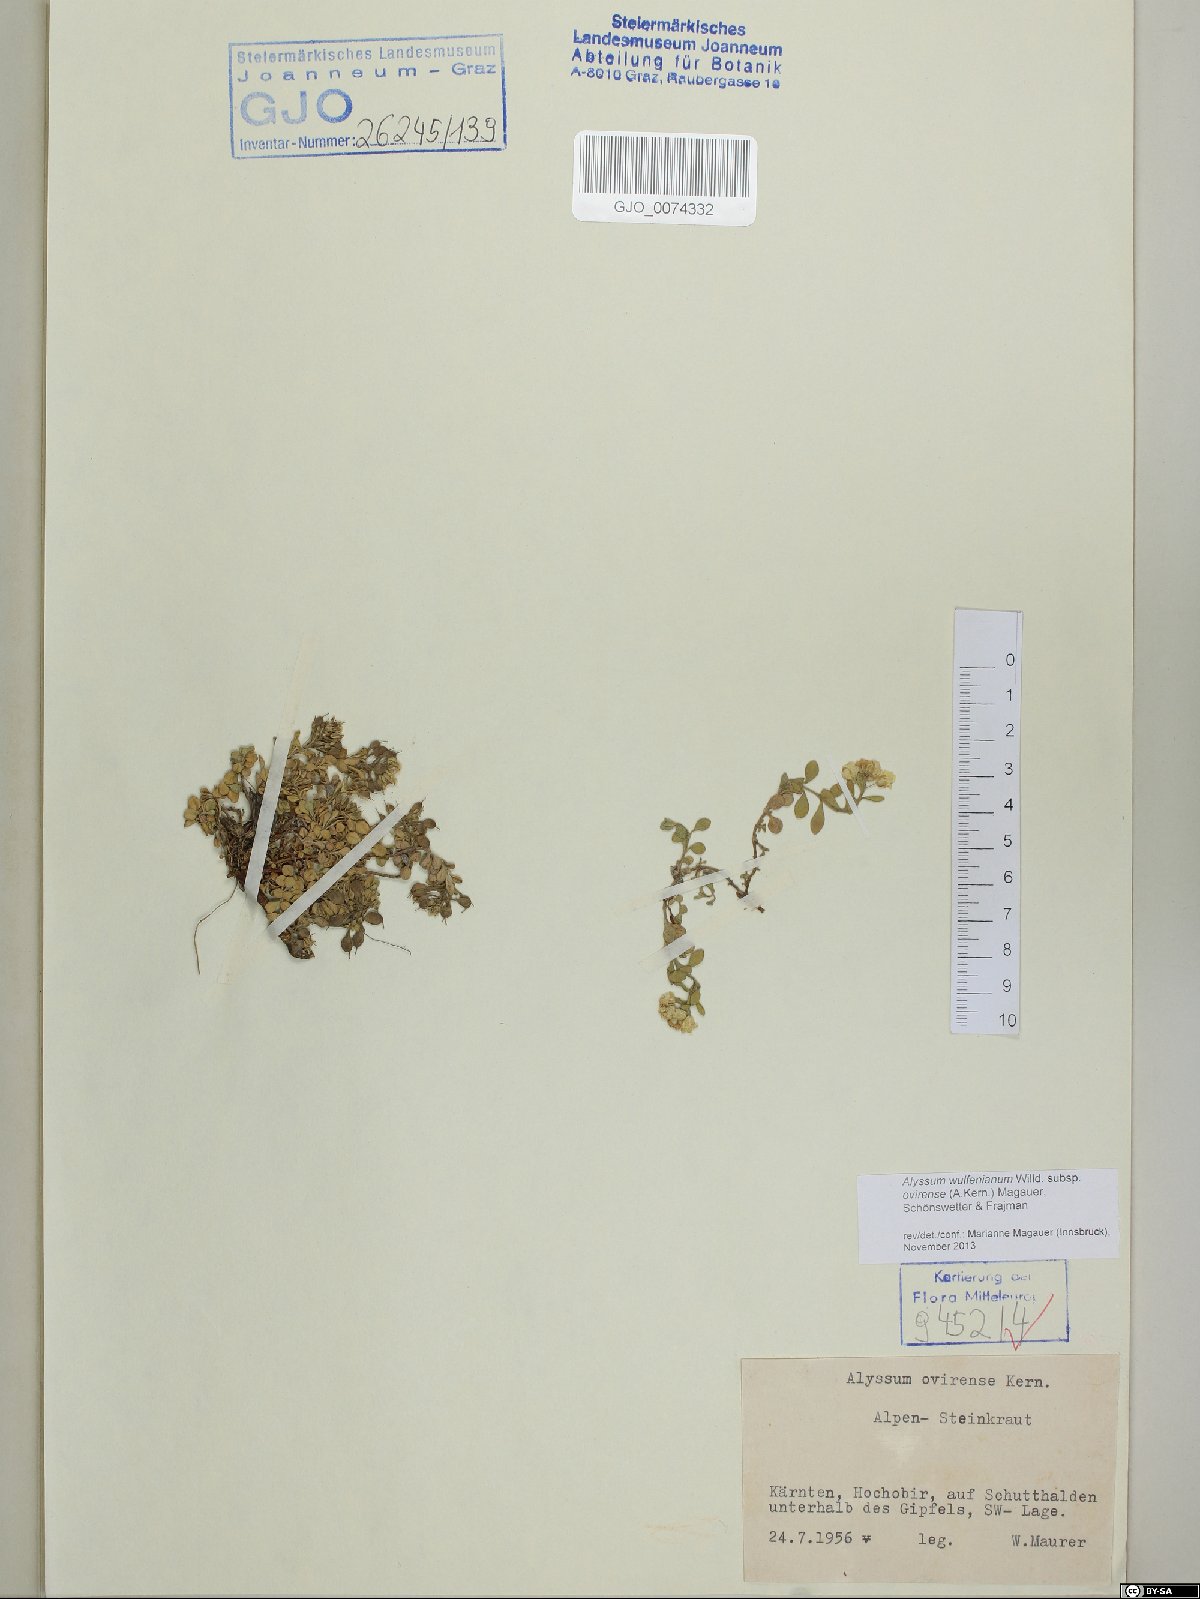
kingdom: Plantae
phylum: Tracheophyta
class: Magnoliopsida
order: Brassicales
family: Brassicaceae
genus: Alyssum
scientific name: Alyssum wulfenianum
